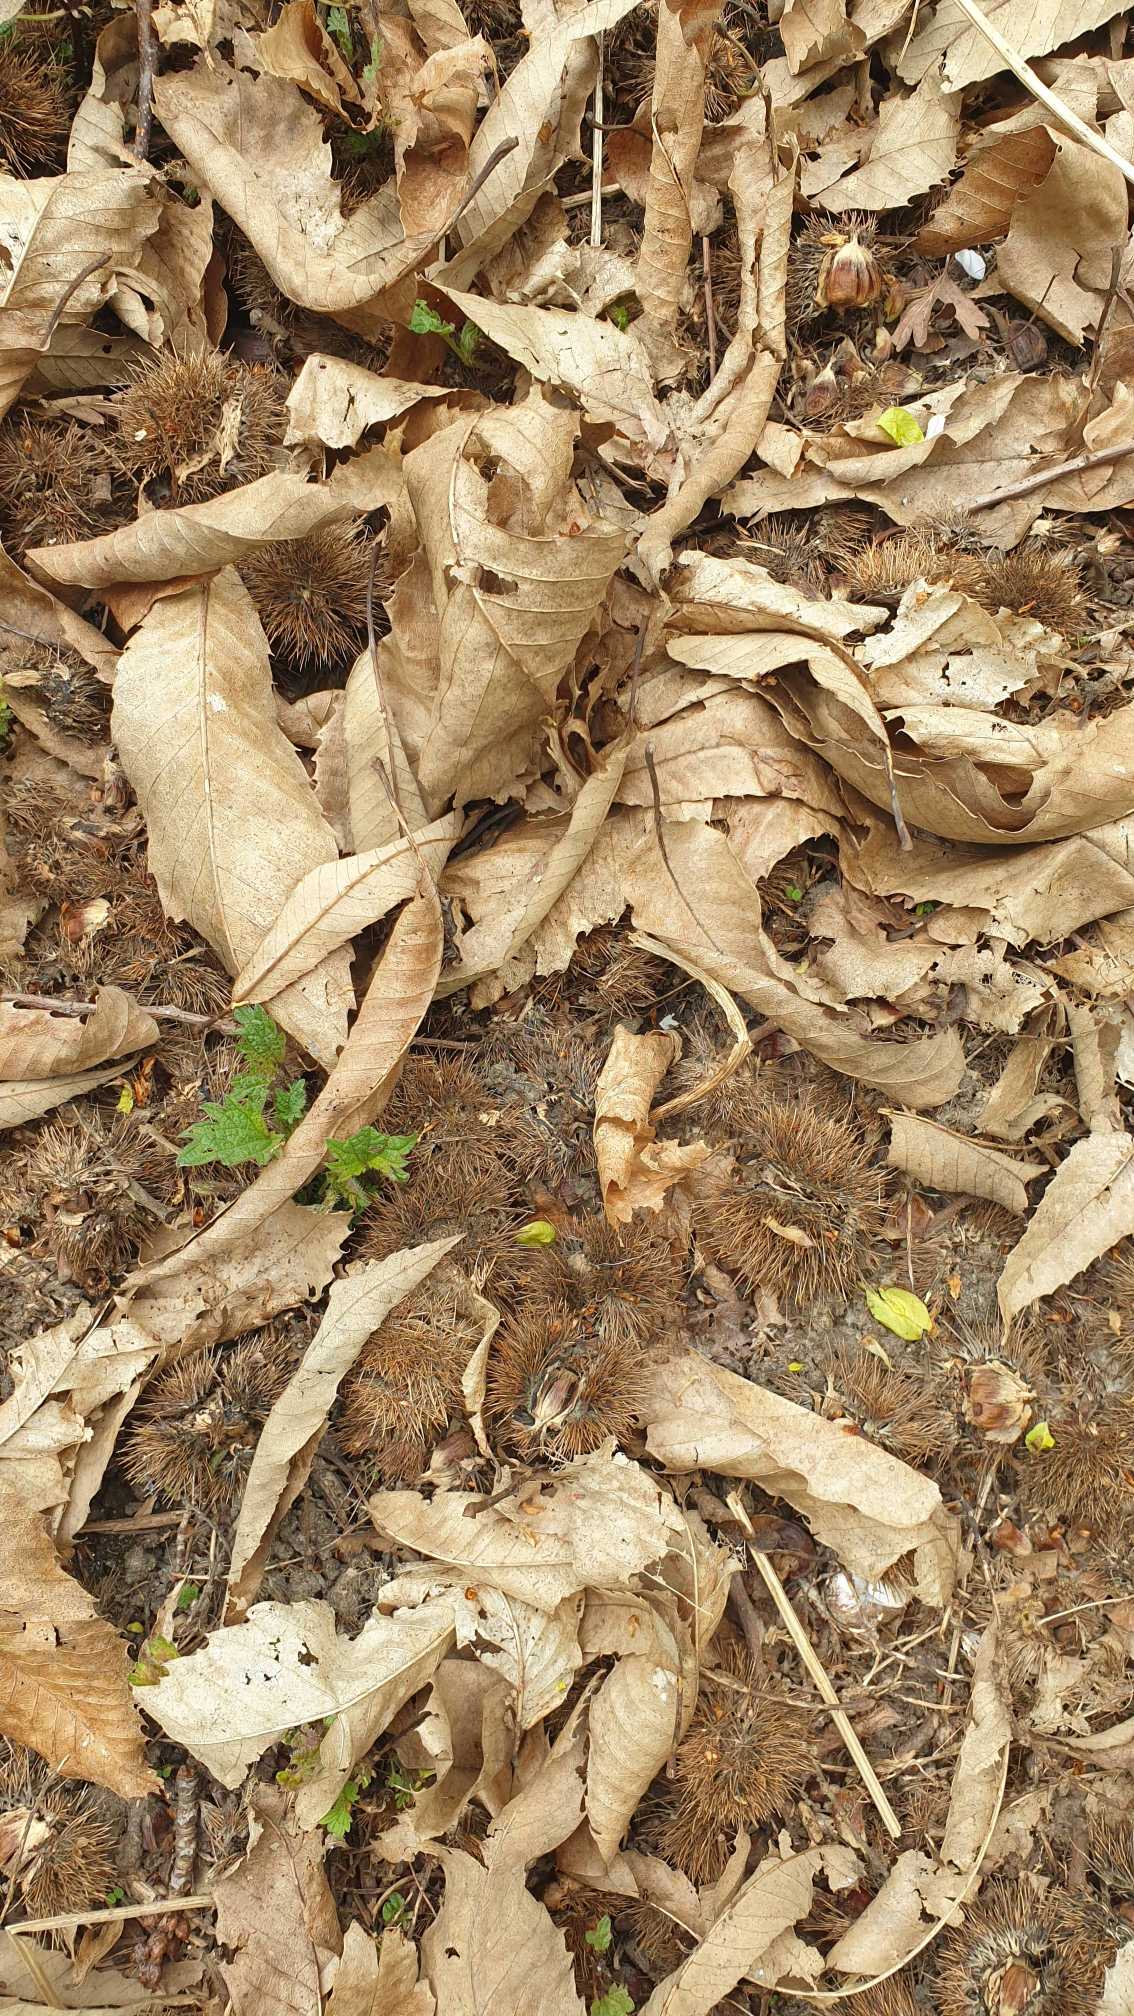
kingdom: Plantae
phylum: Tracheophyta
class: Magnoliopsida
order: Fagales
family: Fagaceae
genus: Castanea
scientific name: Castanea sativa
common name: Ægte kastanie
